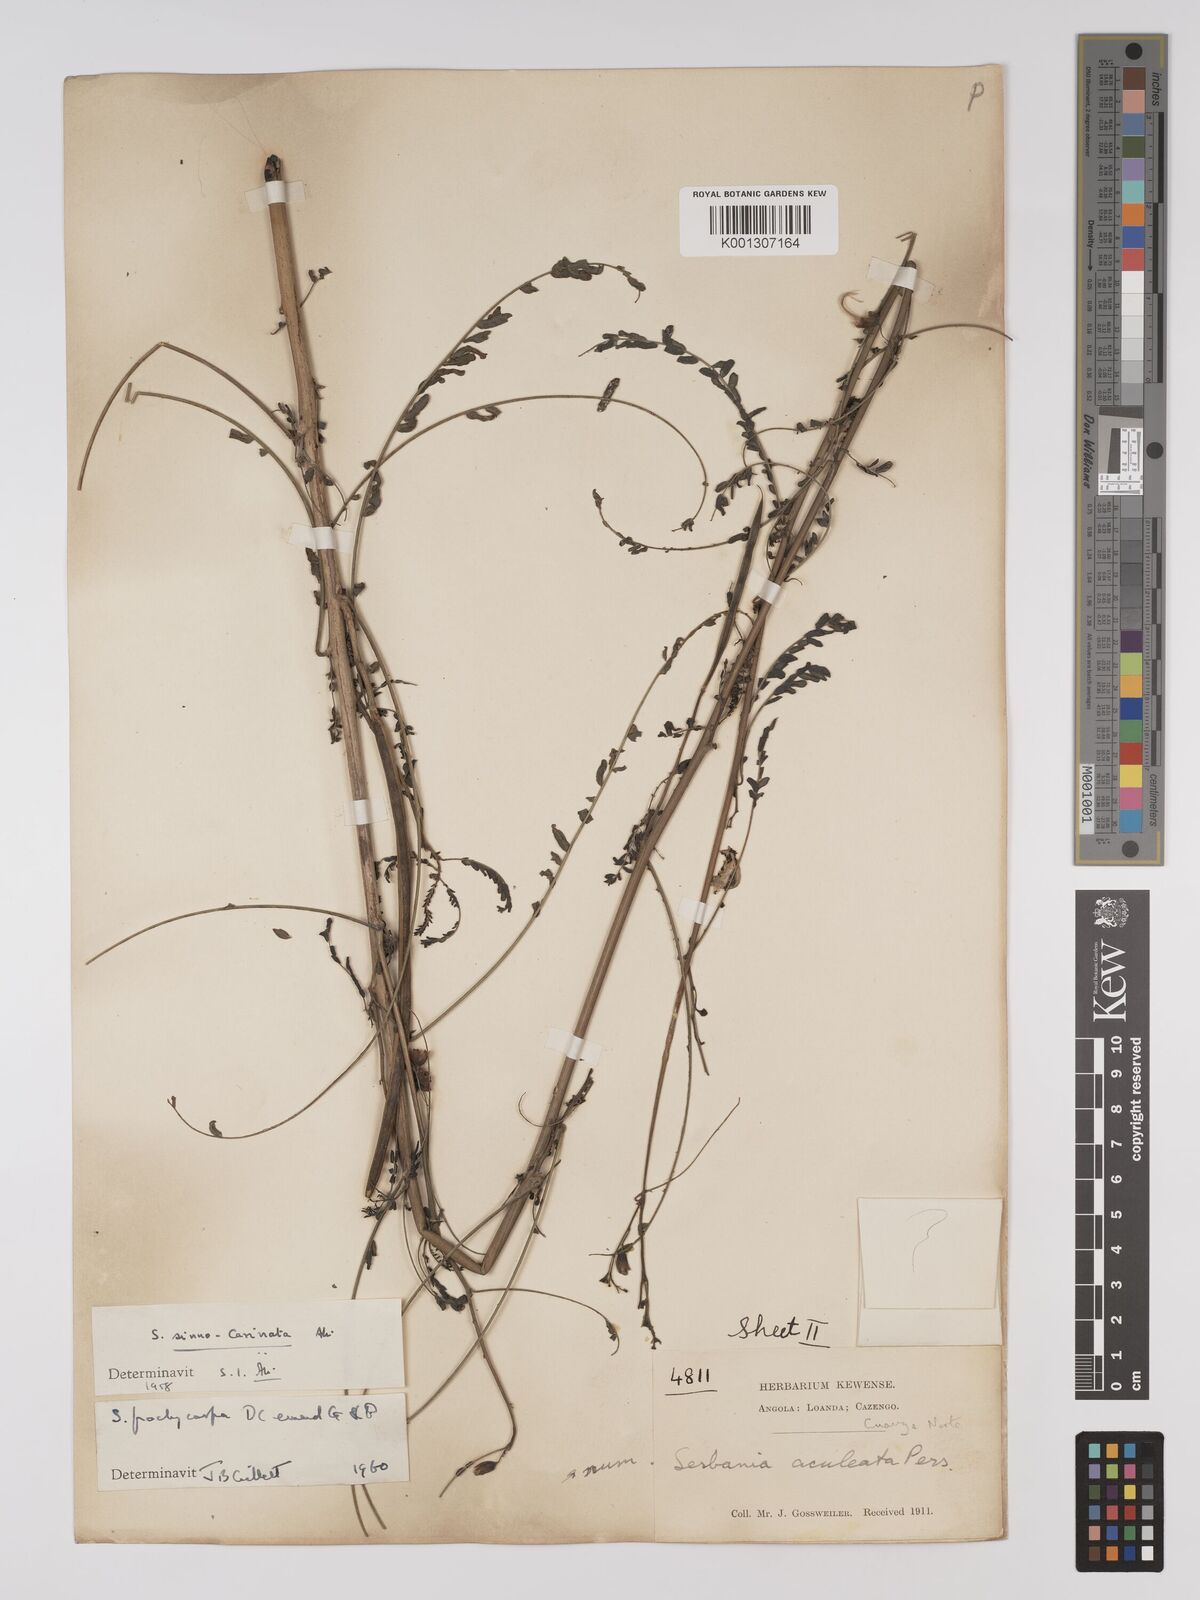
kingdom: Plantae
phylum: Tracheophyta
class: Magnoliopsida
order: Fabales
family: Fabaceae
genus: Sesbania
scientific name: Sesbania pachycarpa
